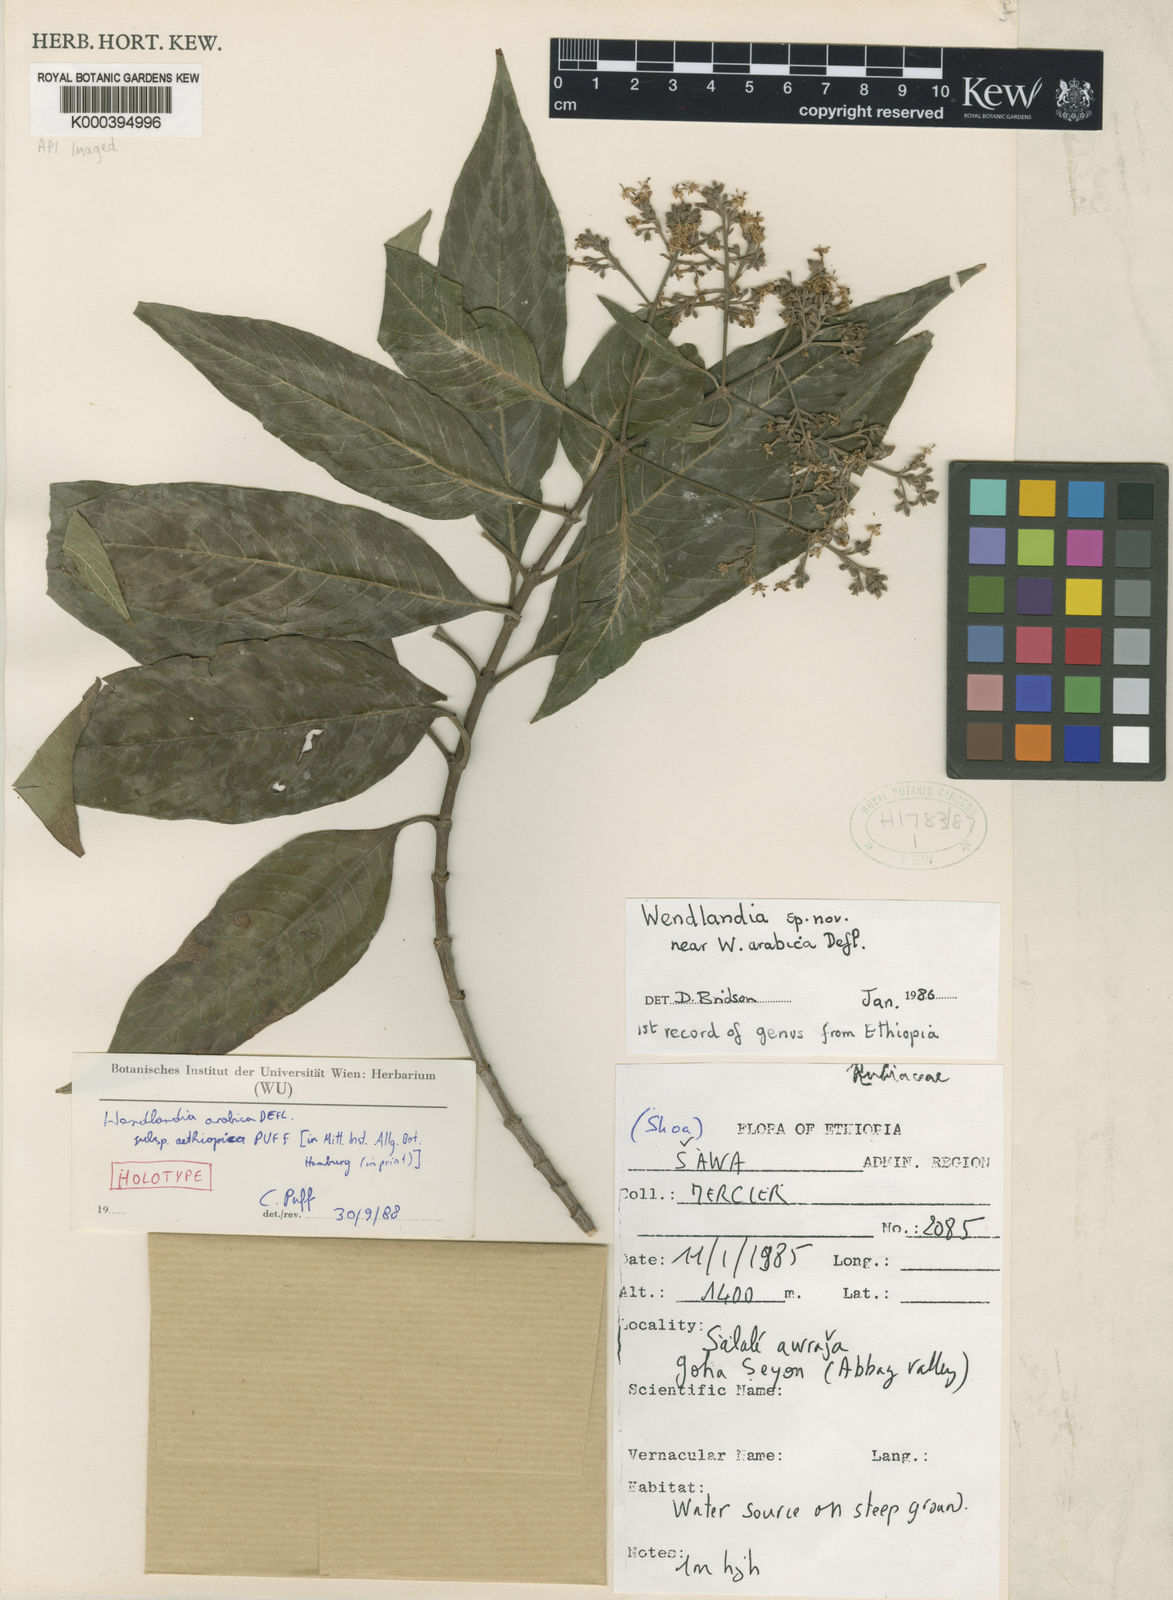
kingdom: Plantae
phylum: Tracheophyta
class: Magnoliopsida
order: Gentianales
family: Rubiaceae
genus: Wendlandia
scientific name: Wendlandia arabica
